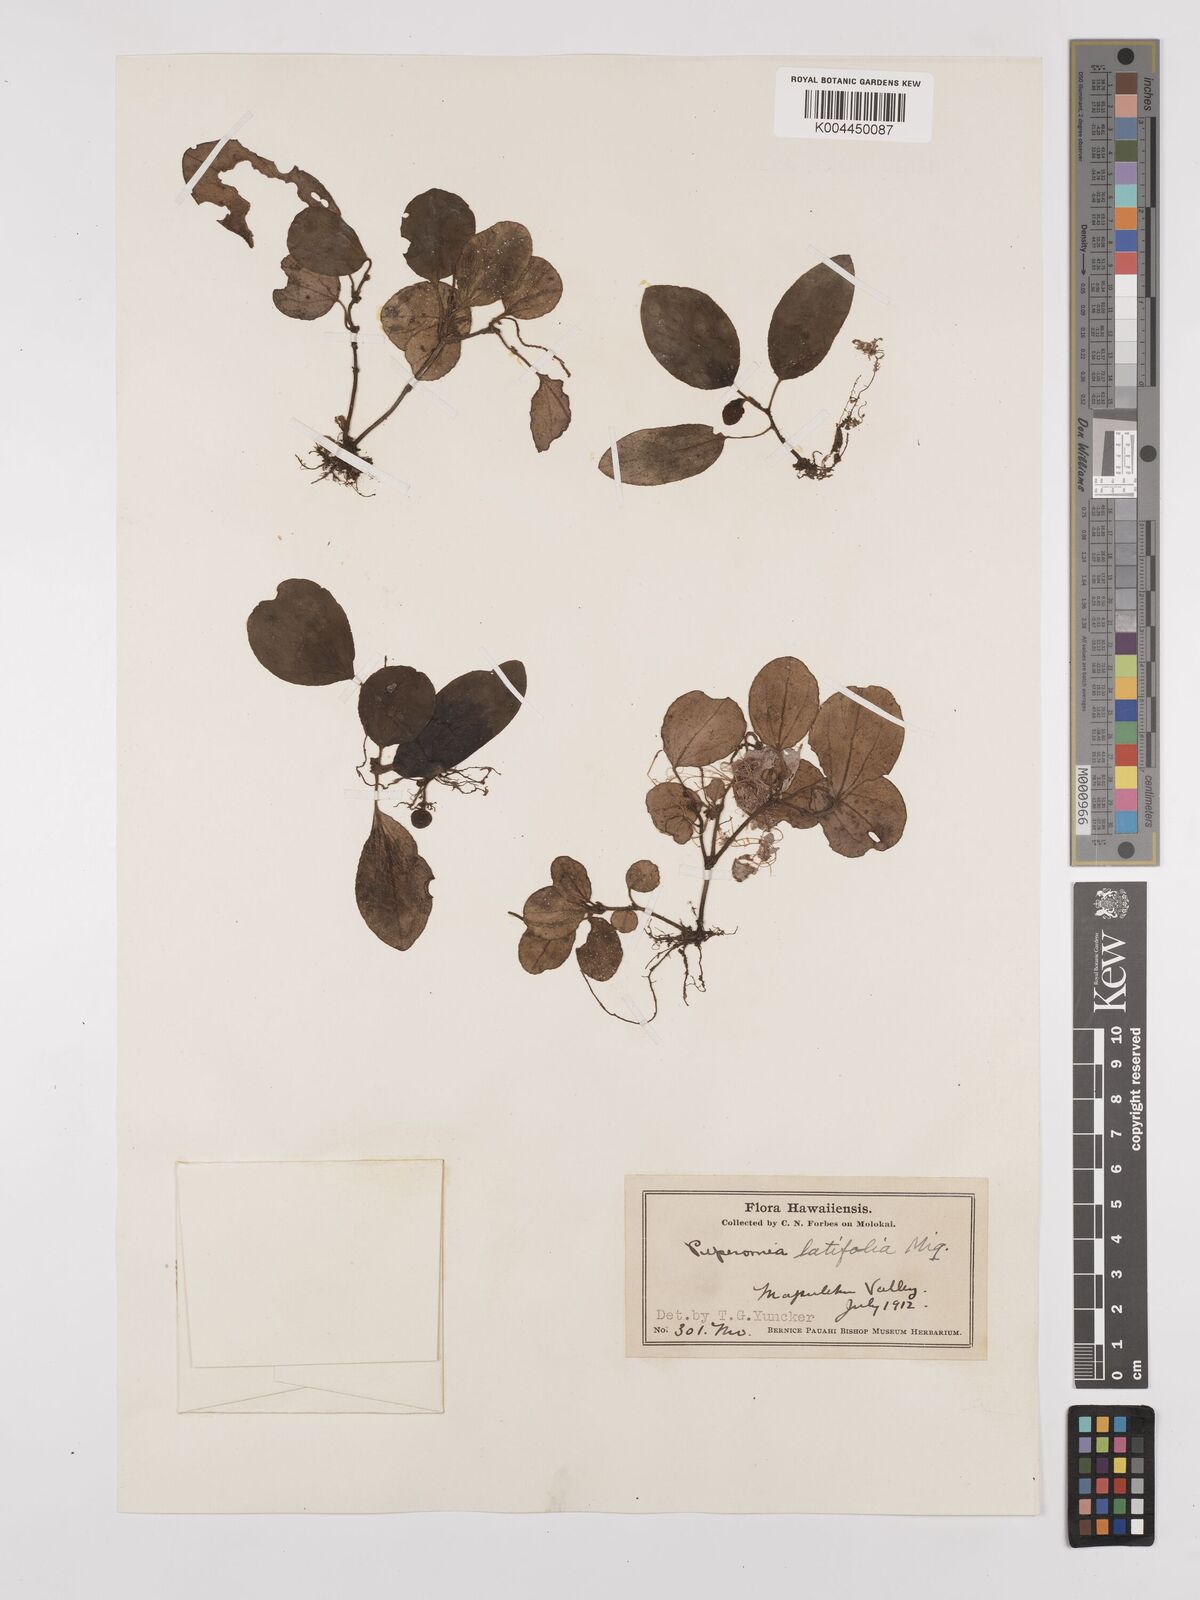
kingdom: Plantae
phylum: Tracheophyta
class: Magnoliopsida
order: Piperales
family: Piperaceae
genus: Peperomia
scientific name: Peperomia latifolia
